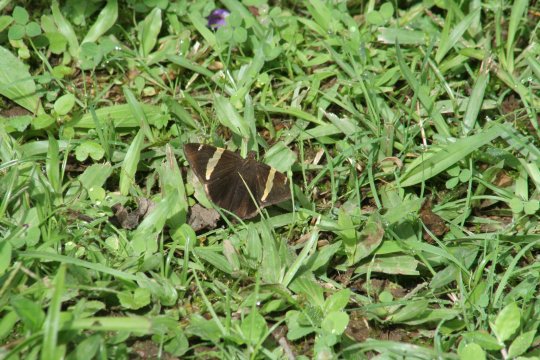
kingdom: Animalia
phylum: Arthropoda
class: Insecta
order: Lepidoptera
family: Hesperiidae
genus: Autochton
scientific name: Autochton vectilucis
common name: Central American Banded-Skipper
